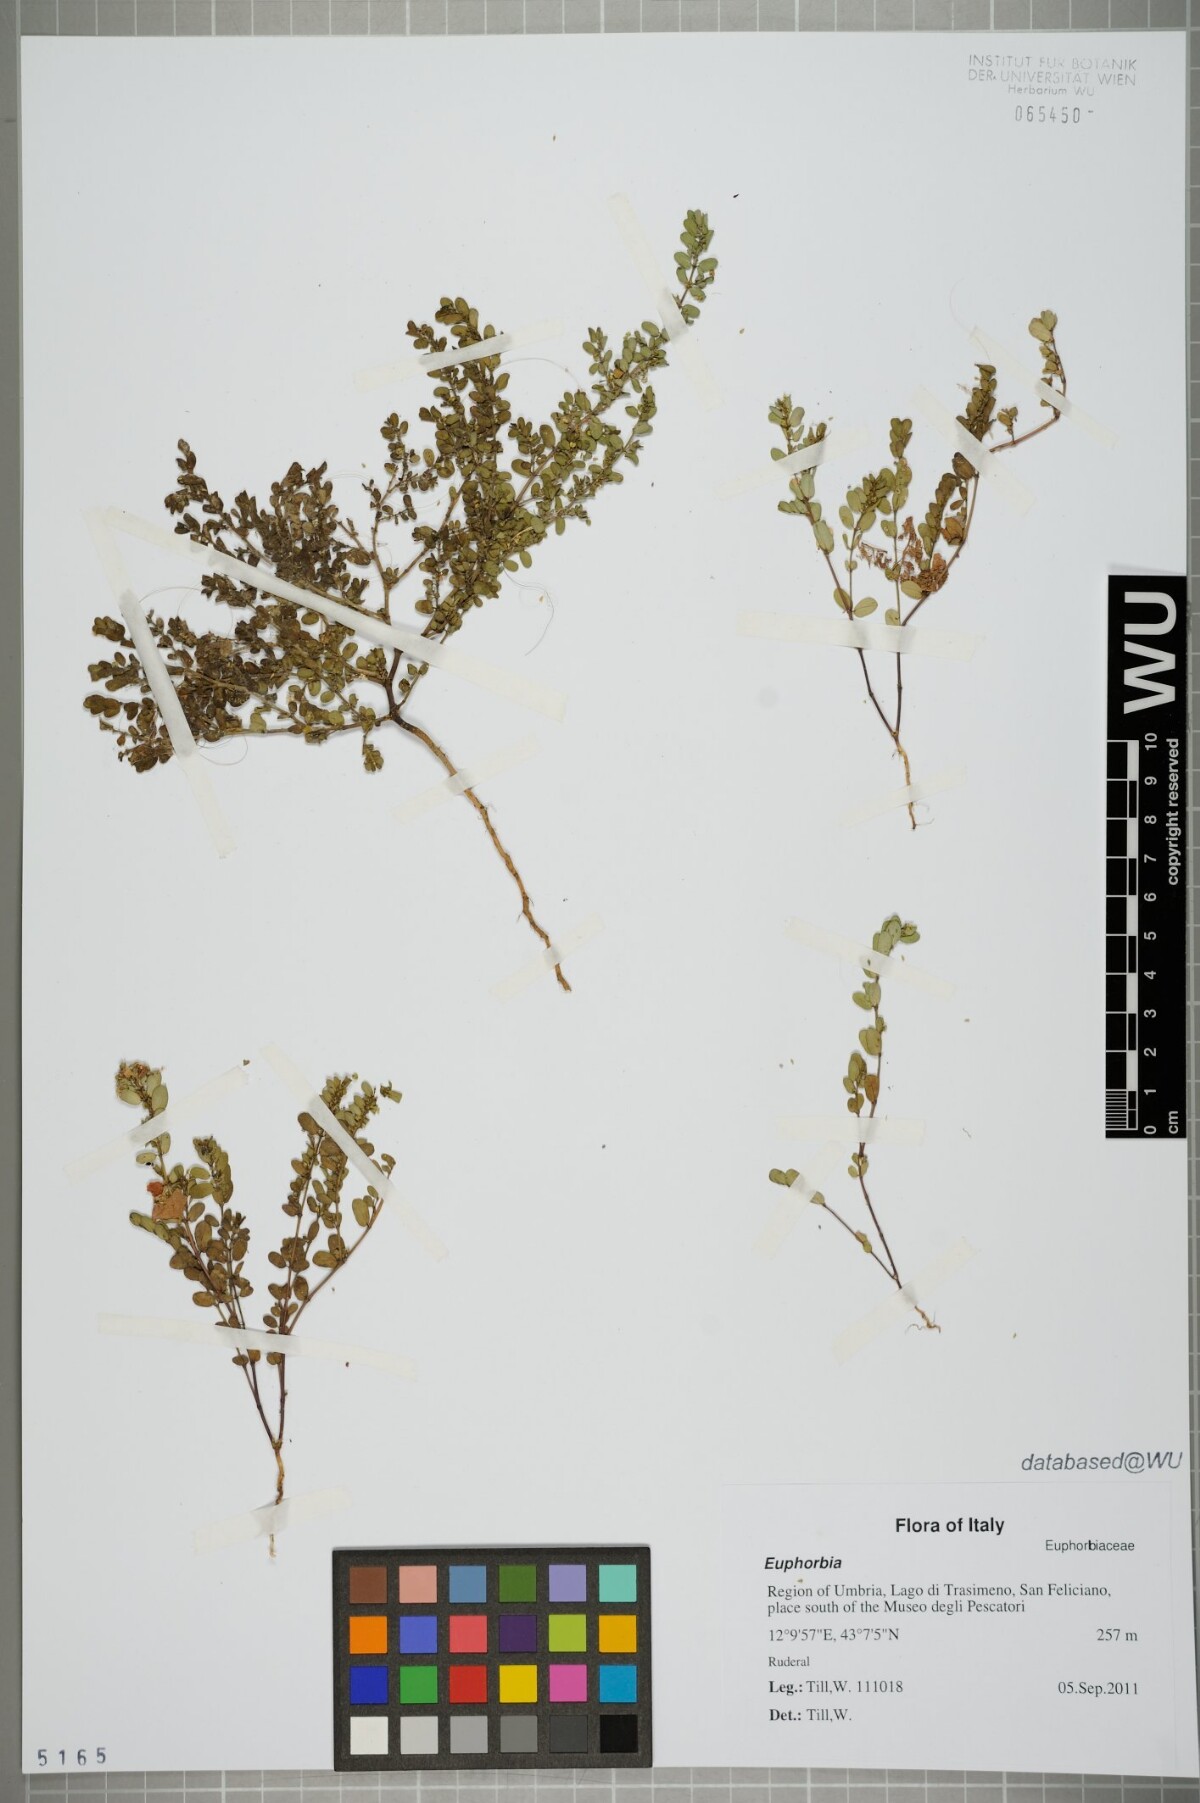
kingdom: Plantae
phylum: Tracheophyta
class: Magnoliopsida
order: Malpighiales
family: Euphorbiaceae
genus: Euphorbia
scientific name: Euphorbia
